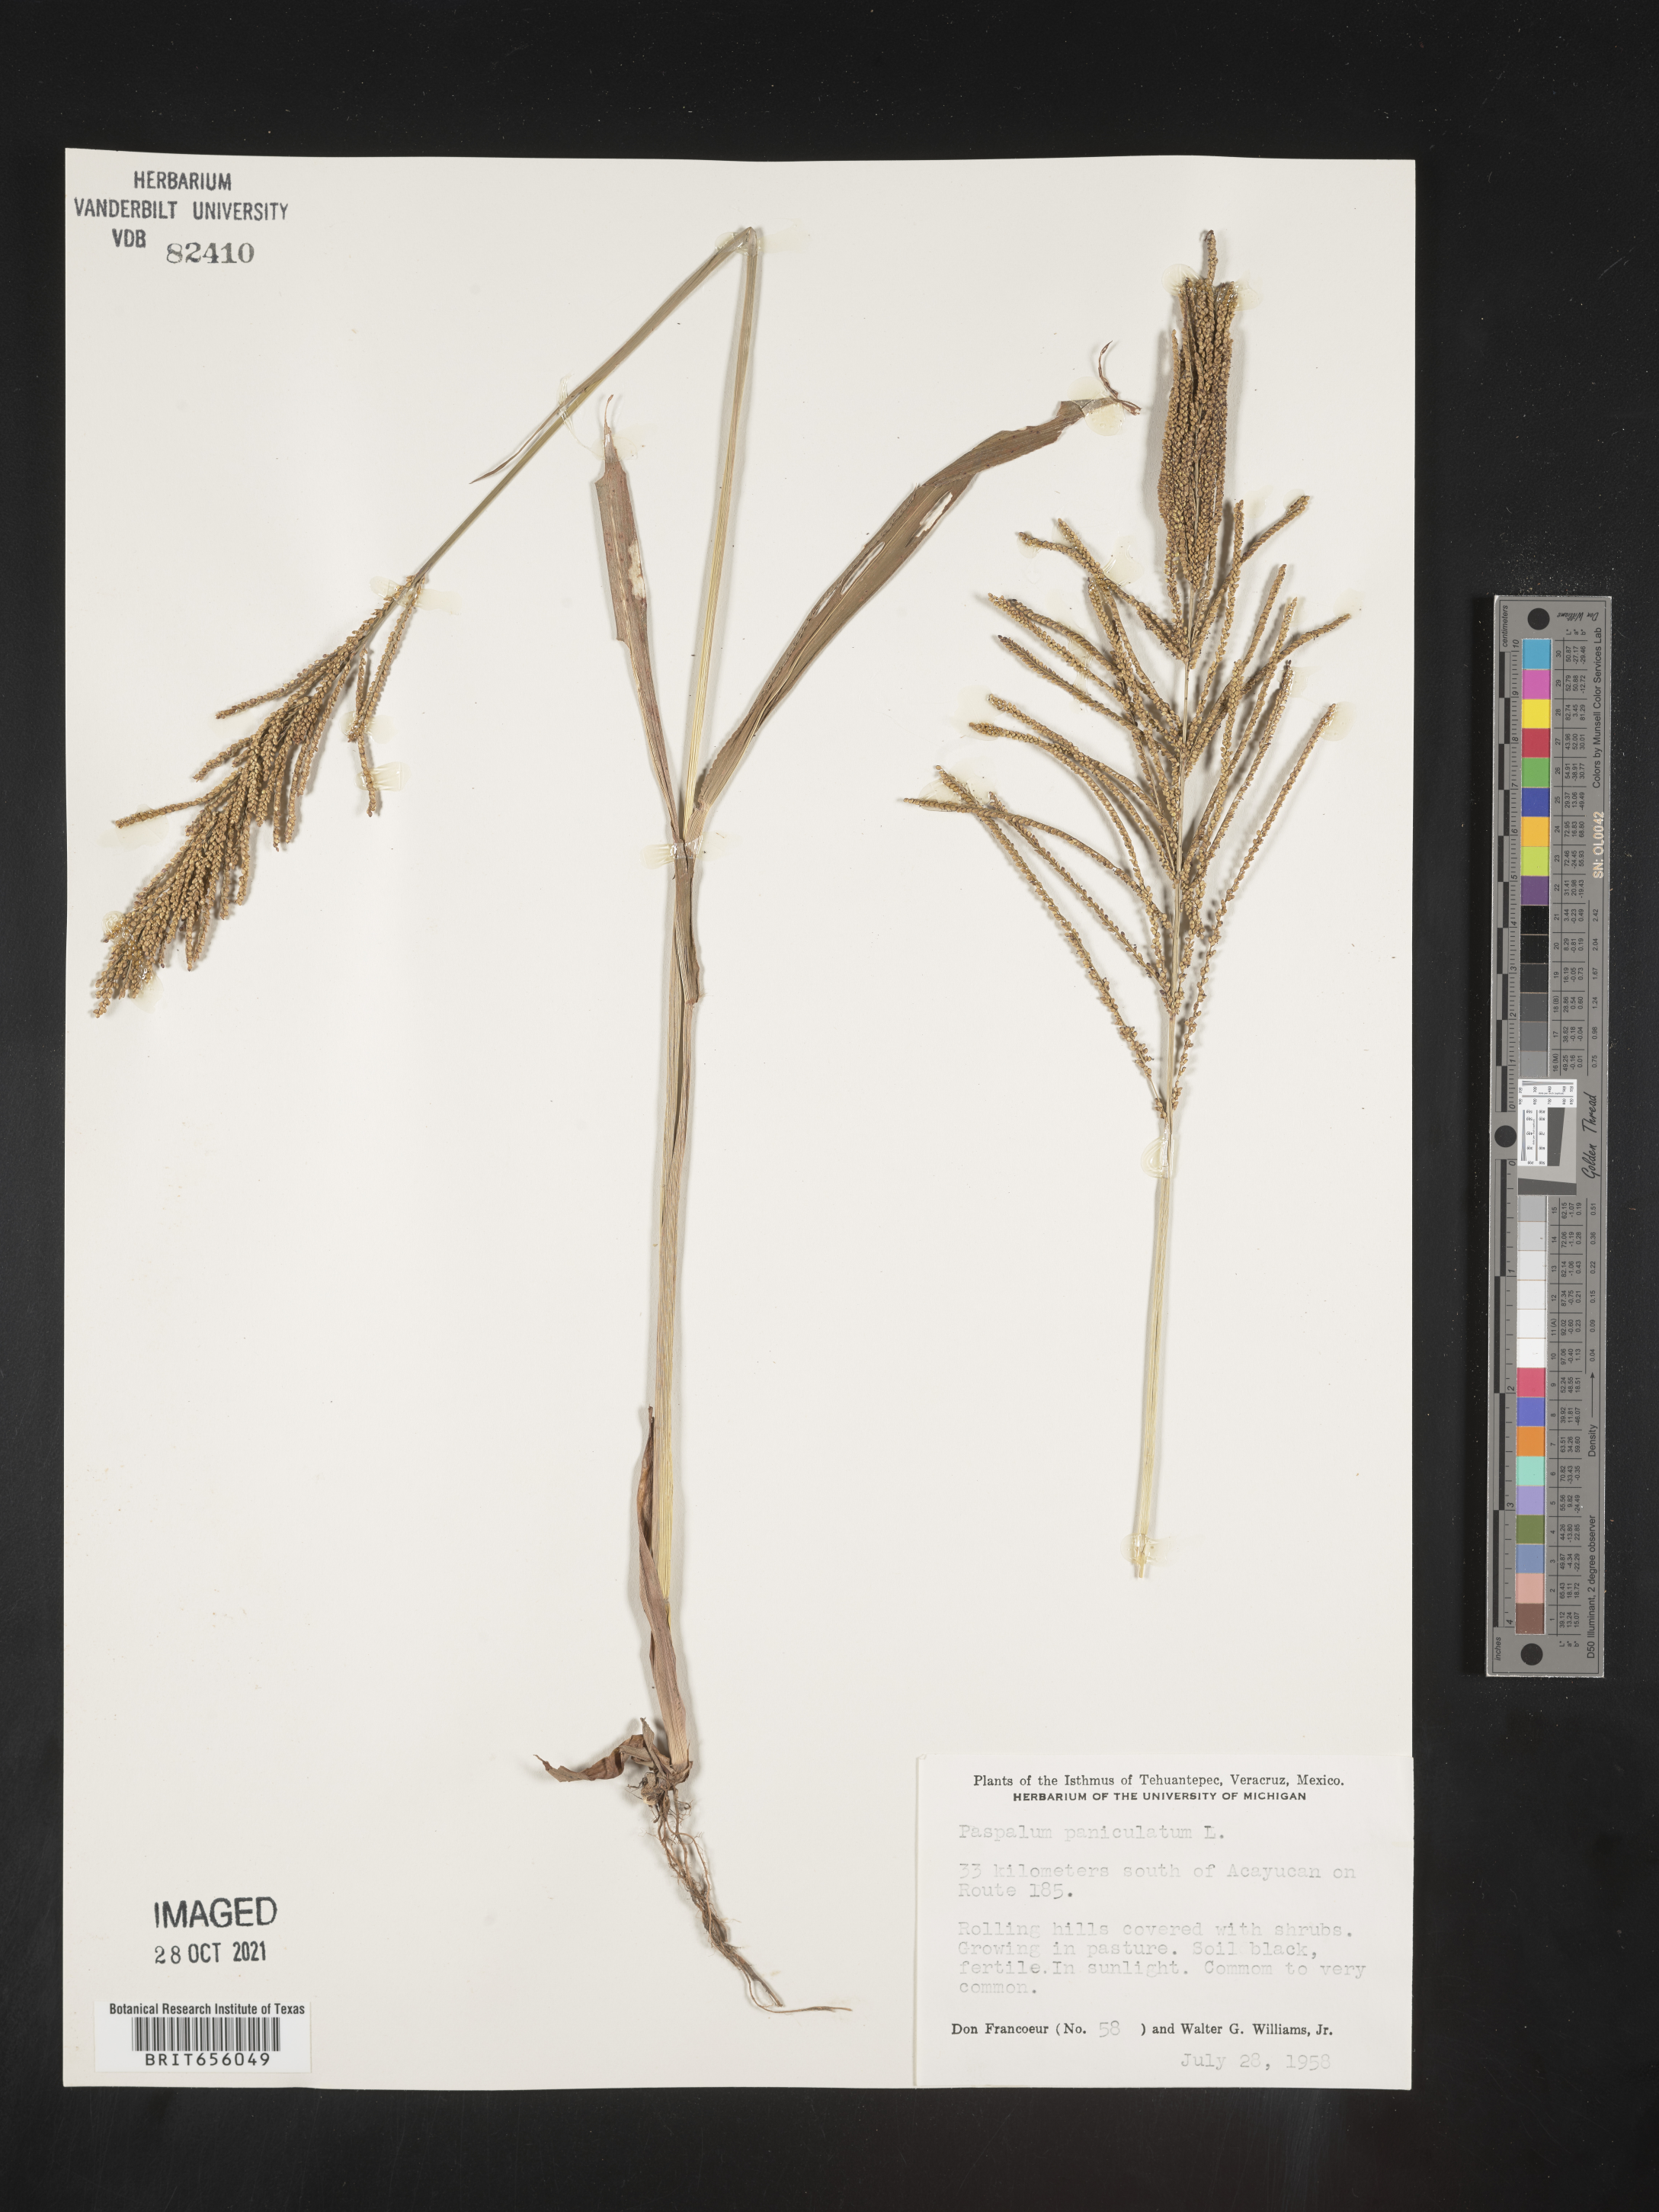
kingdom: Plantae
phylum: Tracheophyta
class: Liliopsida
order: Poales
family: Poaceae
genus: Paspalum
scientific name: Paspalum
